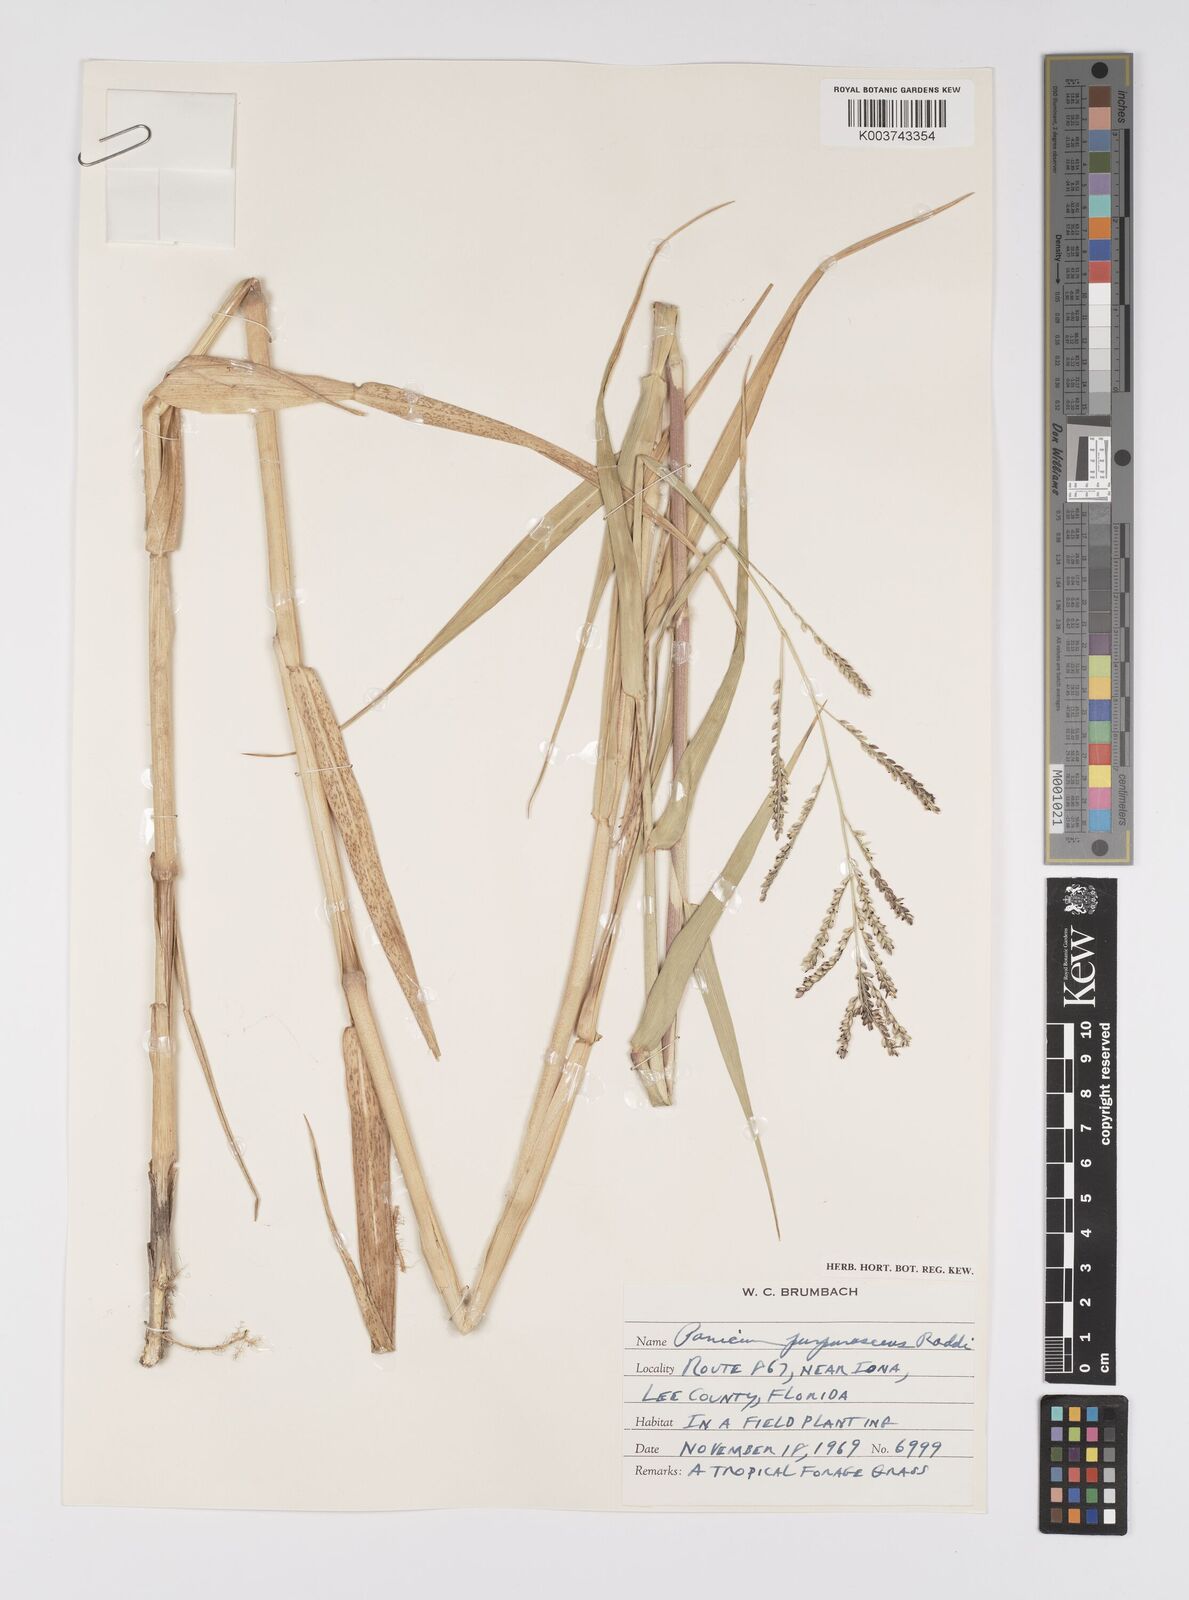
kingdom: Plantae
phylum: Tracheophyta
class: Liliopsida
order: Poales
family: Poaceae
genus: Urochloa
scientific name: Urochloa mutica
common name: Para grass
